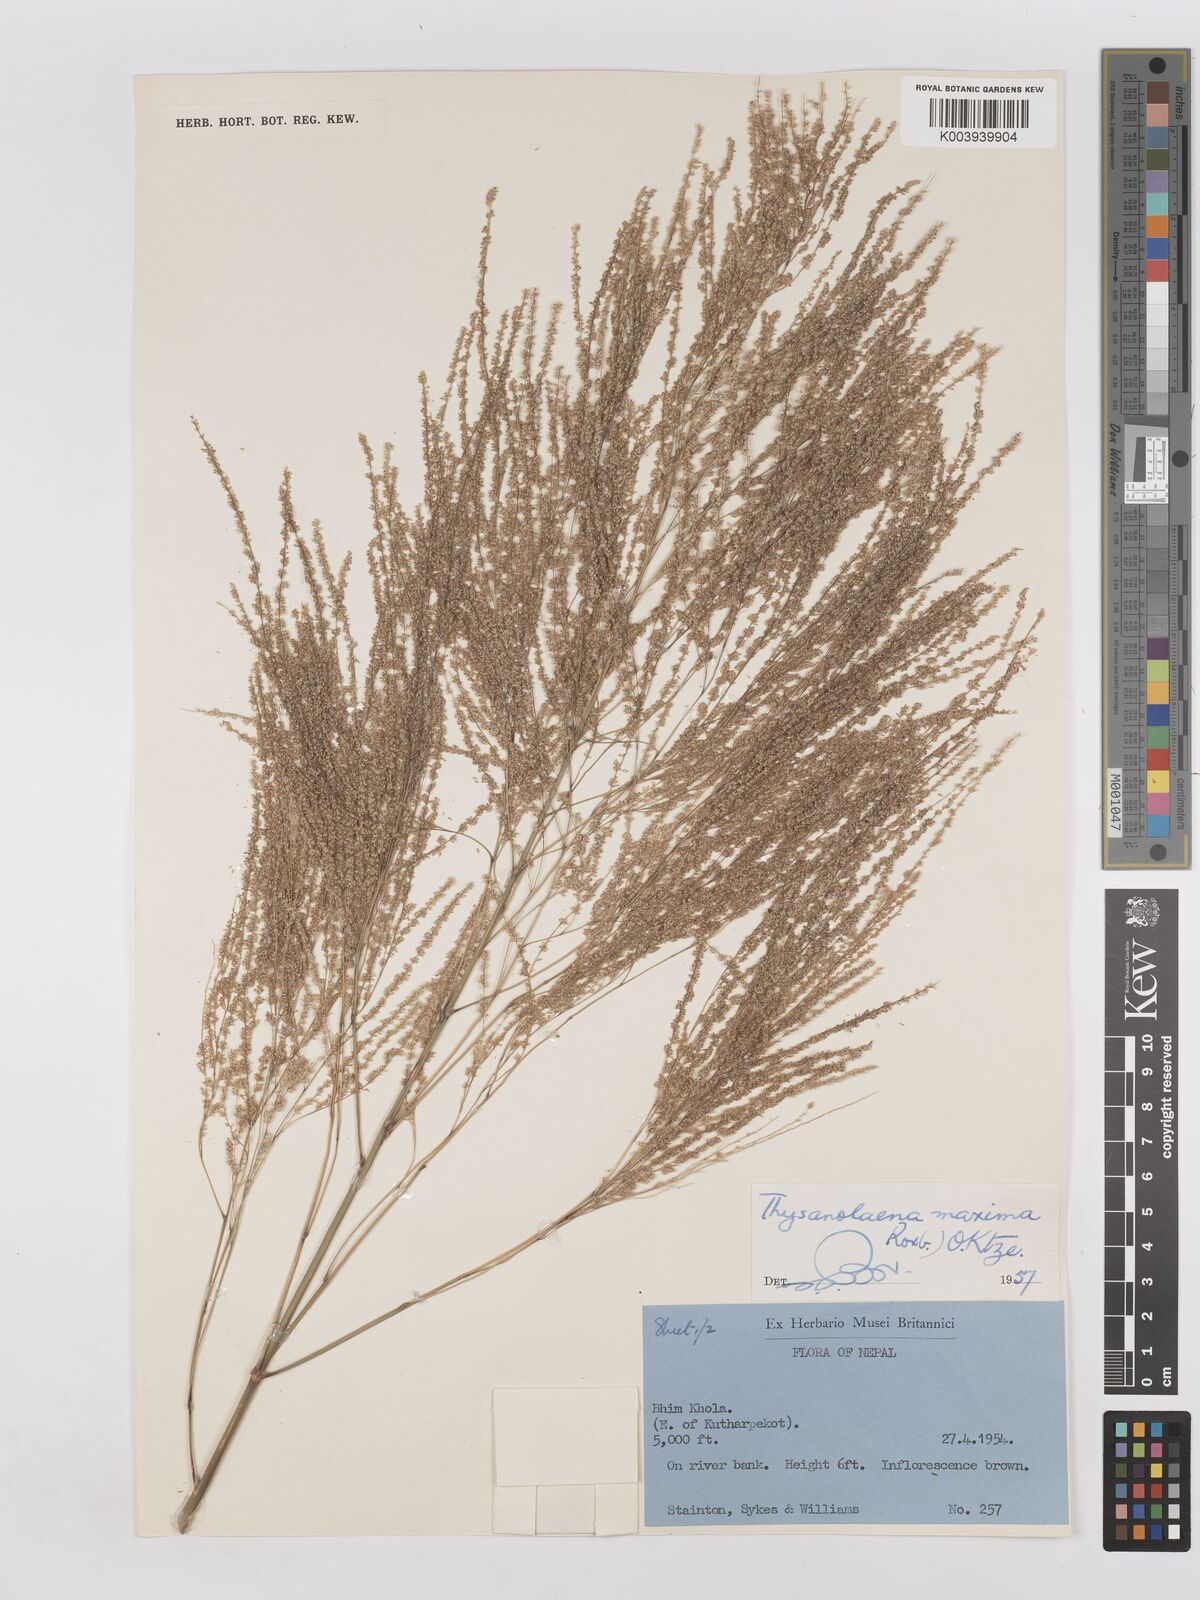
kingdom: Plantae
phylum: Tracheophyta
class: Liliopsida
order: Poales
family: Poaceae
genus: Thysanolaena
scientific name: Thysanolaena latifolia
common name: Tiger grass
